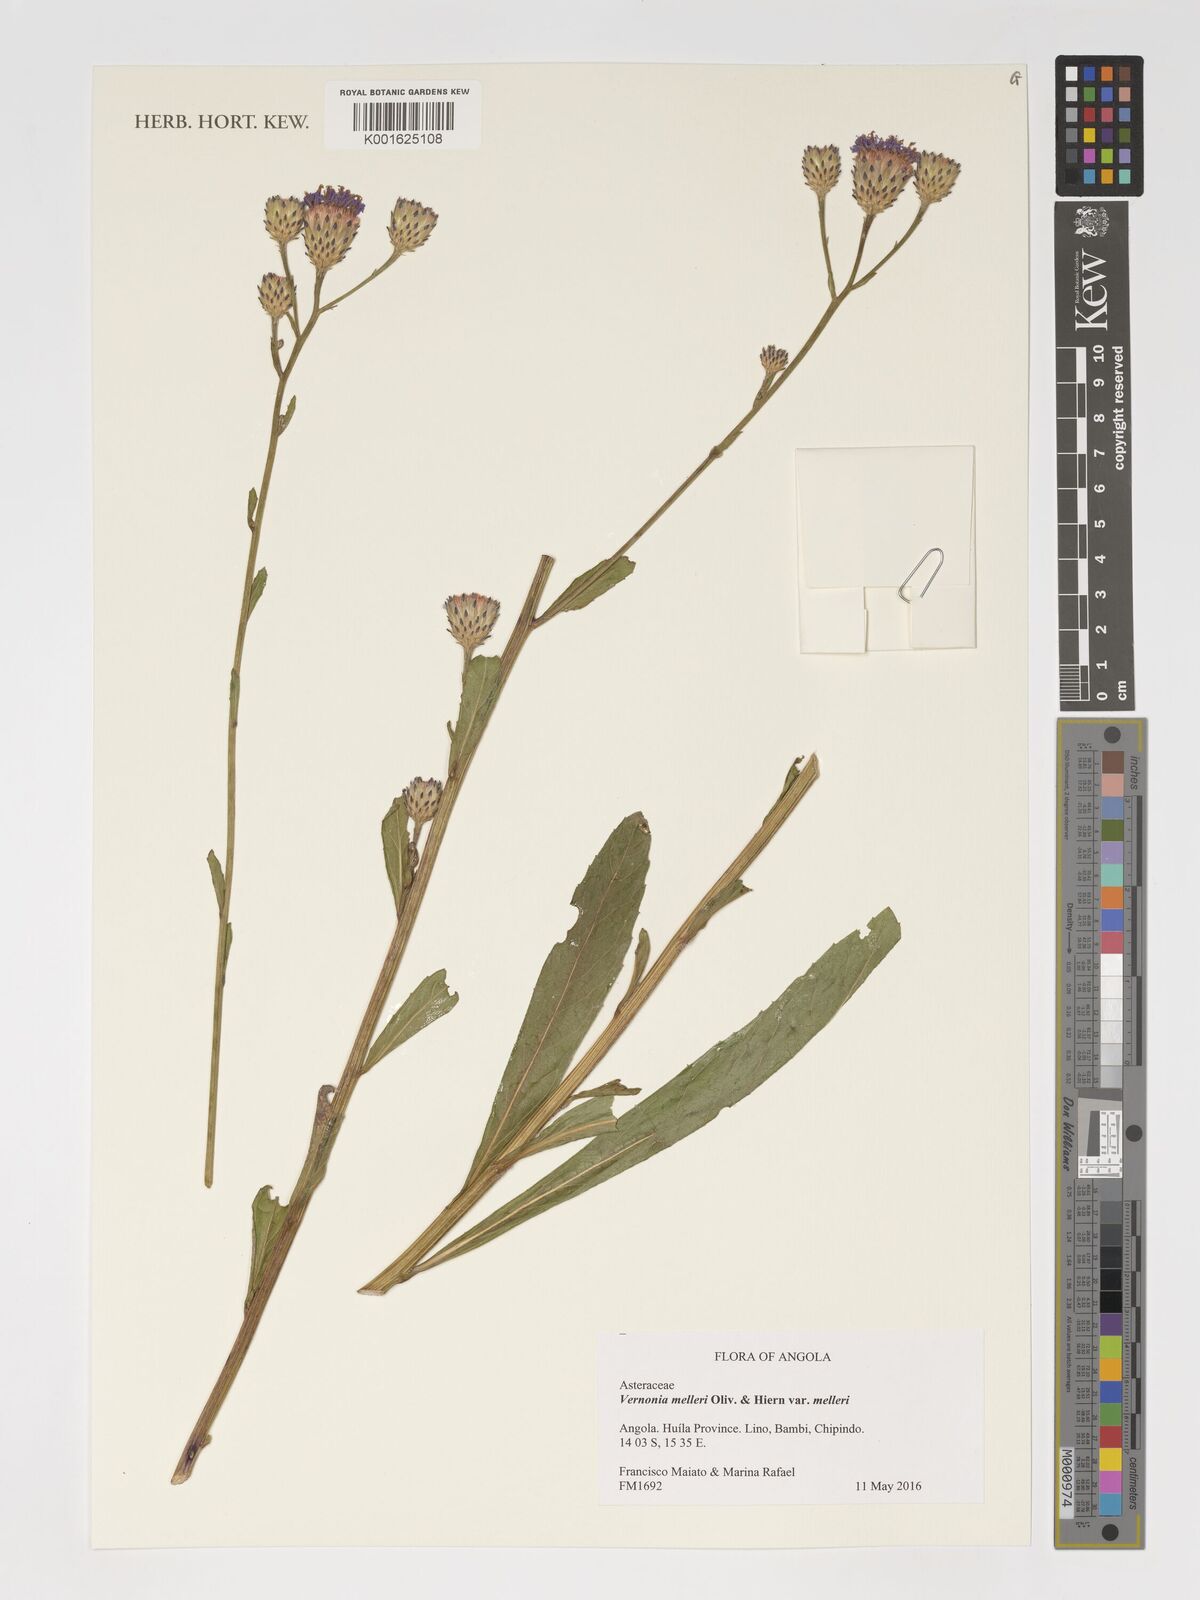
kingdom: Plantae
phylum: Tracheophyta
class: Magnoliopsida
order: Asterales
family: Asteraceae
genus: Linzia
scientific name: Linzia melleri
